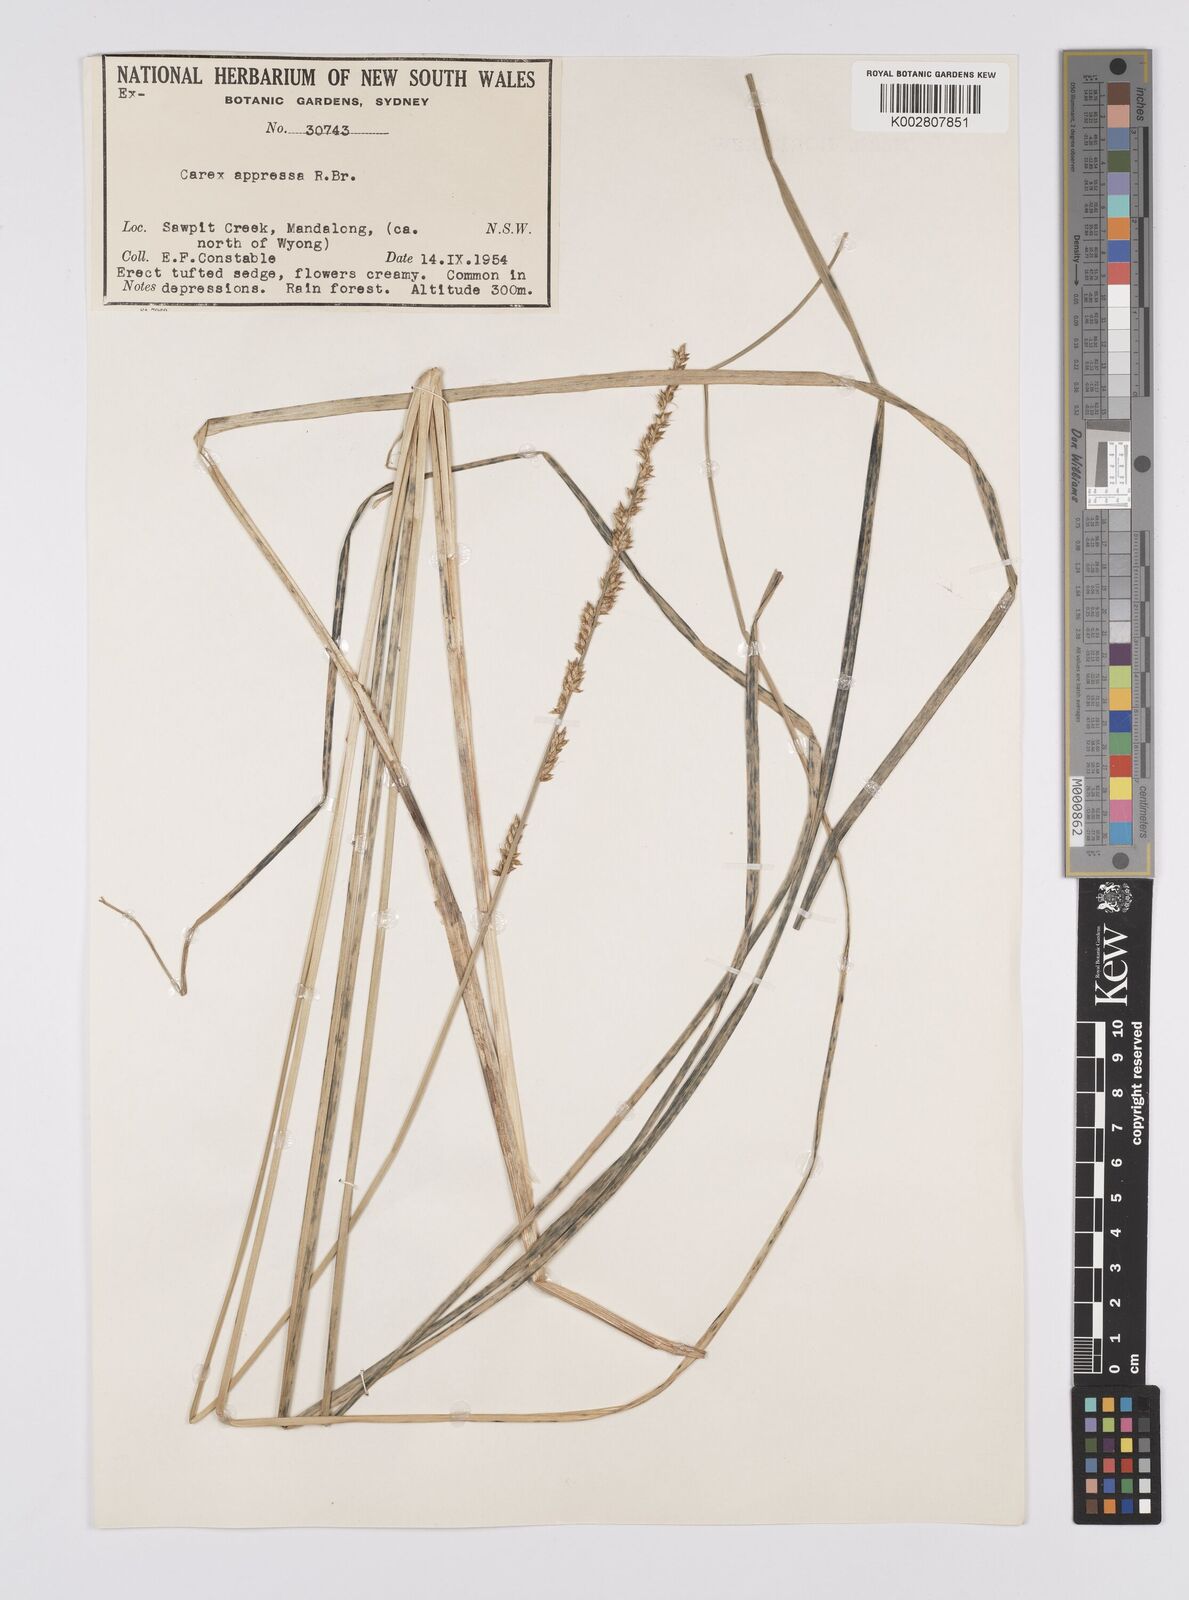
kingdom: Plantae
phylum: Tracheophyta
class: Liliopsida
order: Poales
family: Cyperaceae
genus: Carex
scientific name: Carex appressa
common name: Tussock sedge
